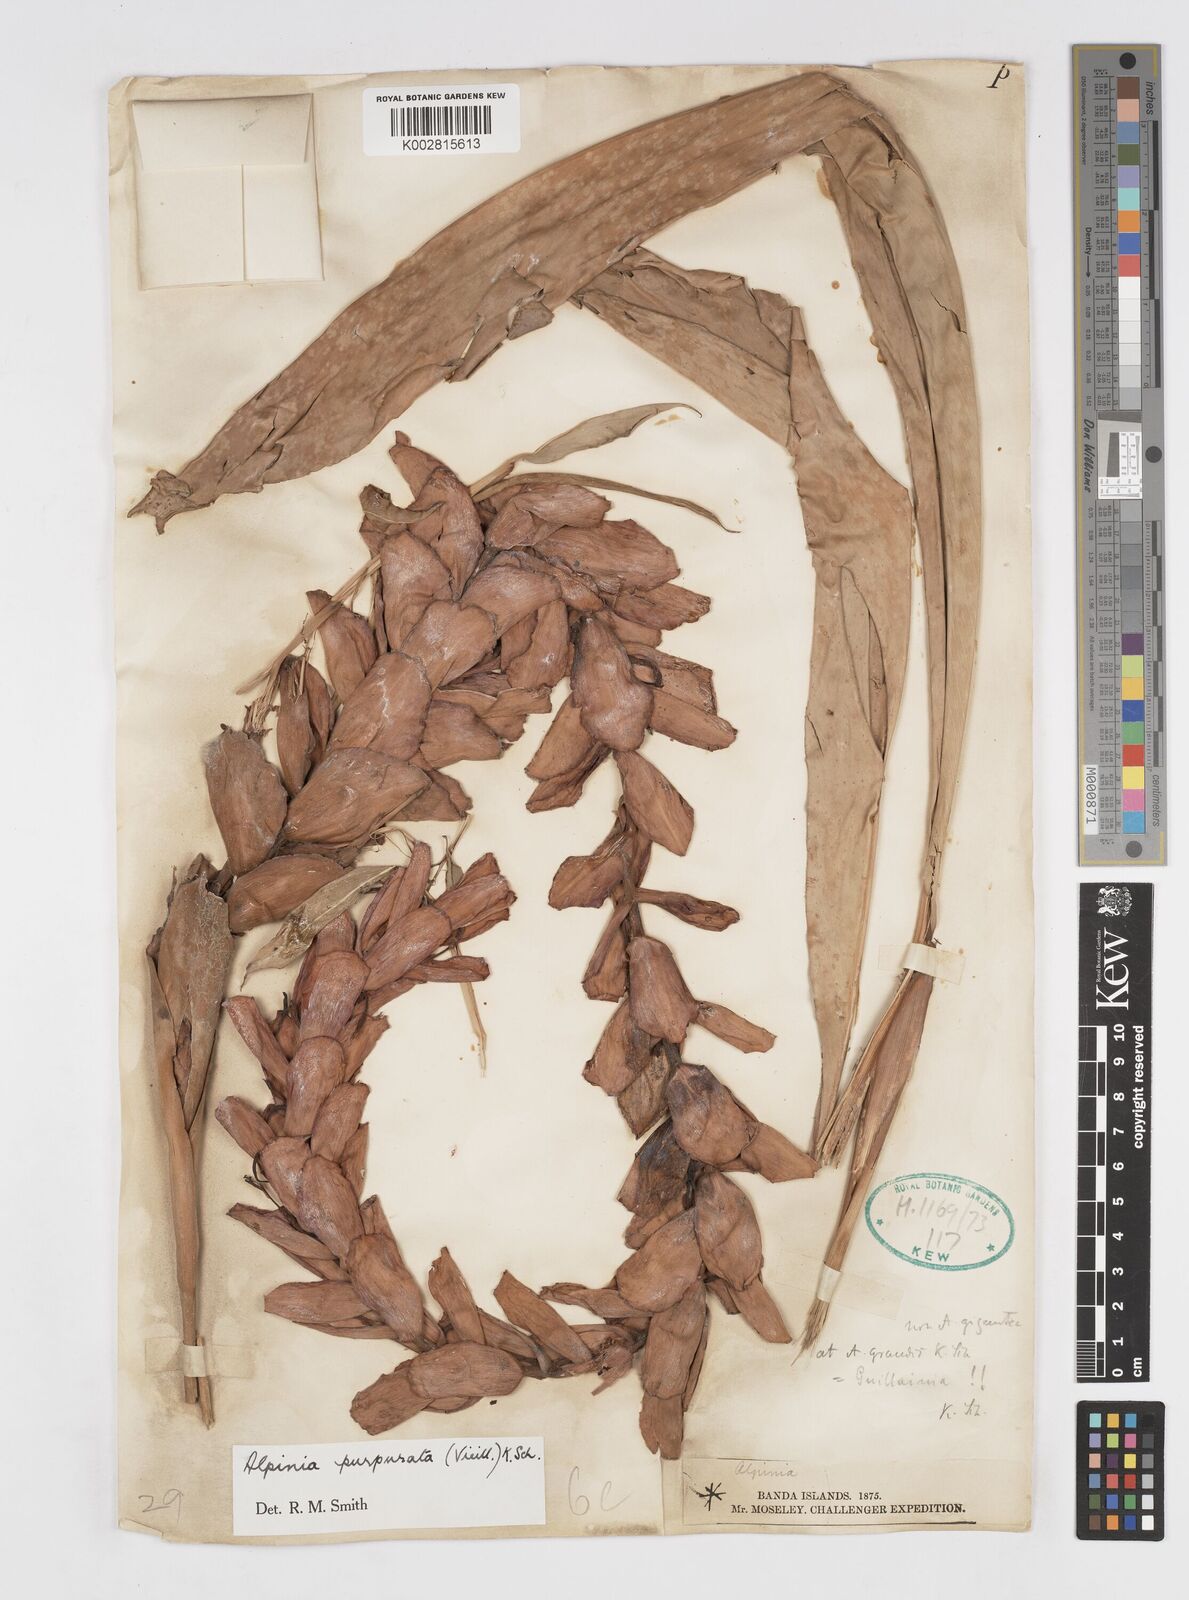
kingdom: Plantae
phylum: Tracheophyta
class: Liliopsida
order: Zingiberales
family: Zingiberaceae
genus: Alpinia
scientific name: Alpinia purpurata
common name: Red ginger
